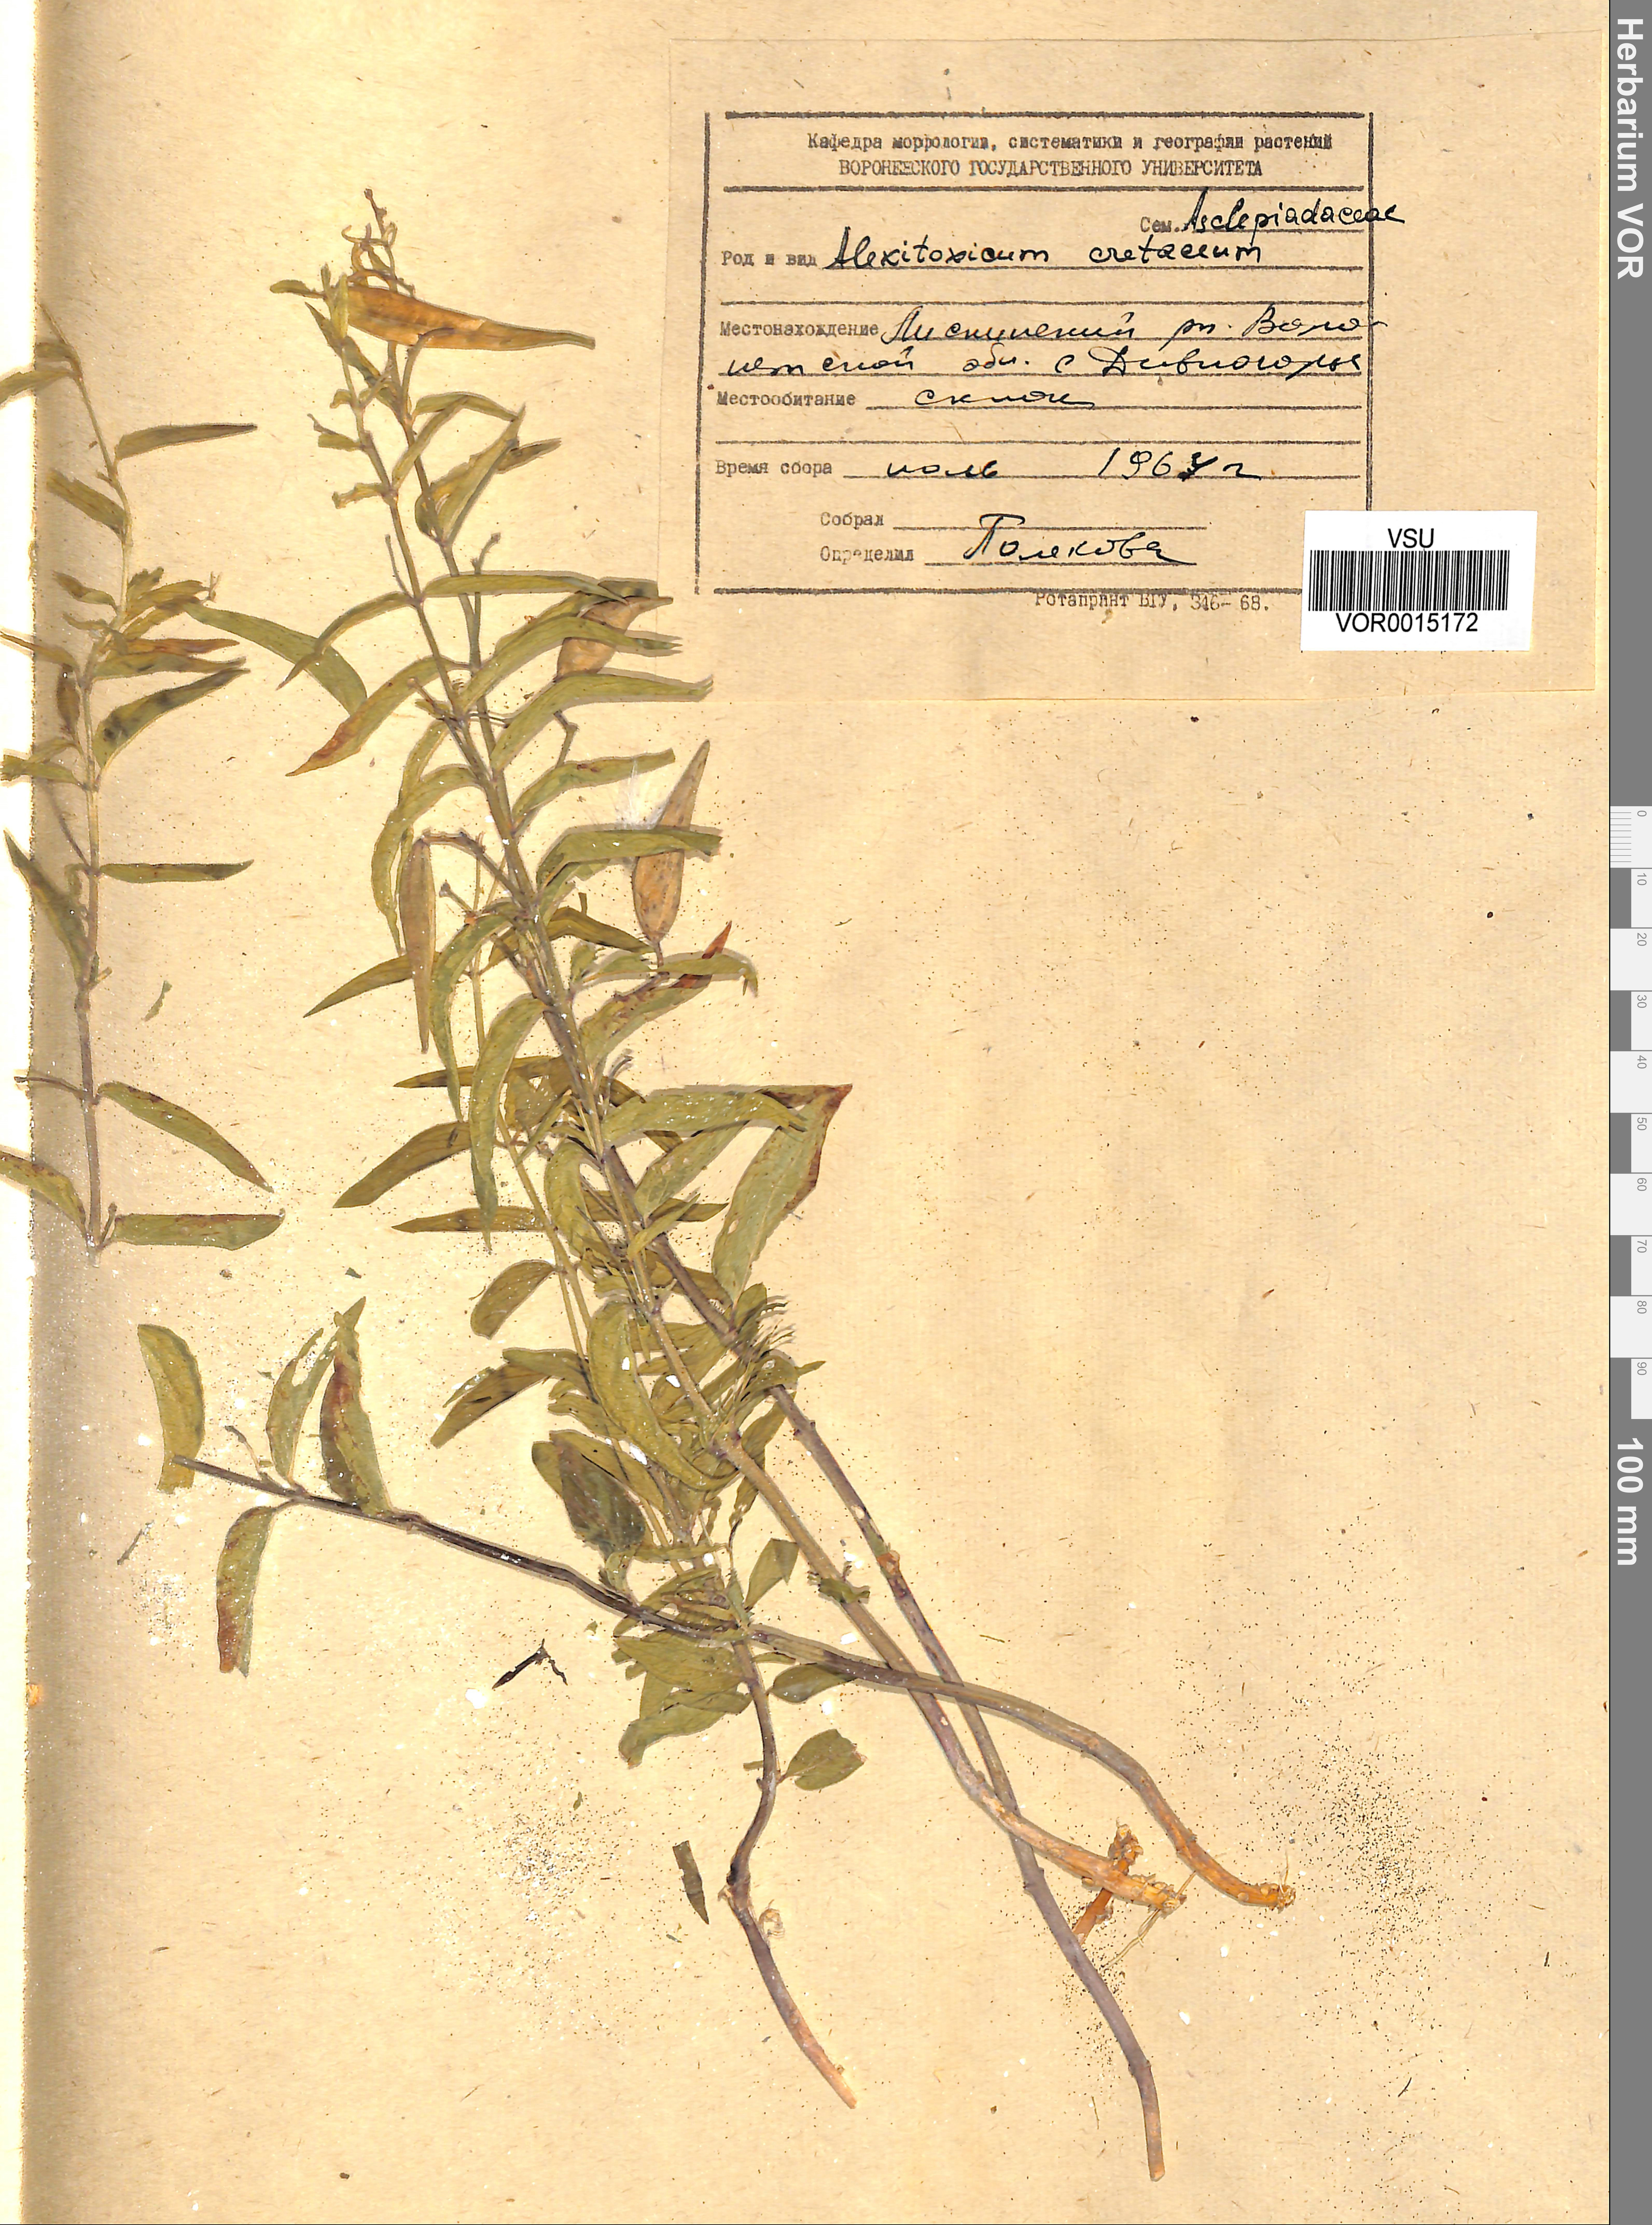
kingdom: Plantae
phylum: Tracheophyta
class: Magnoliopsida
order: Gentianales
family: Apocynaceae
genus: Vincetoxicum
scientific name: Vincetoxicum hirundinaria
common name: White swallowwort
